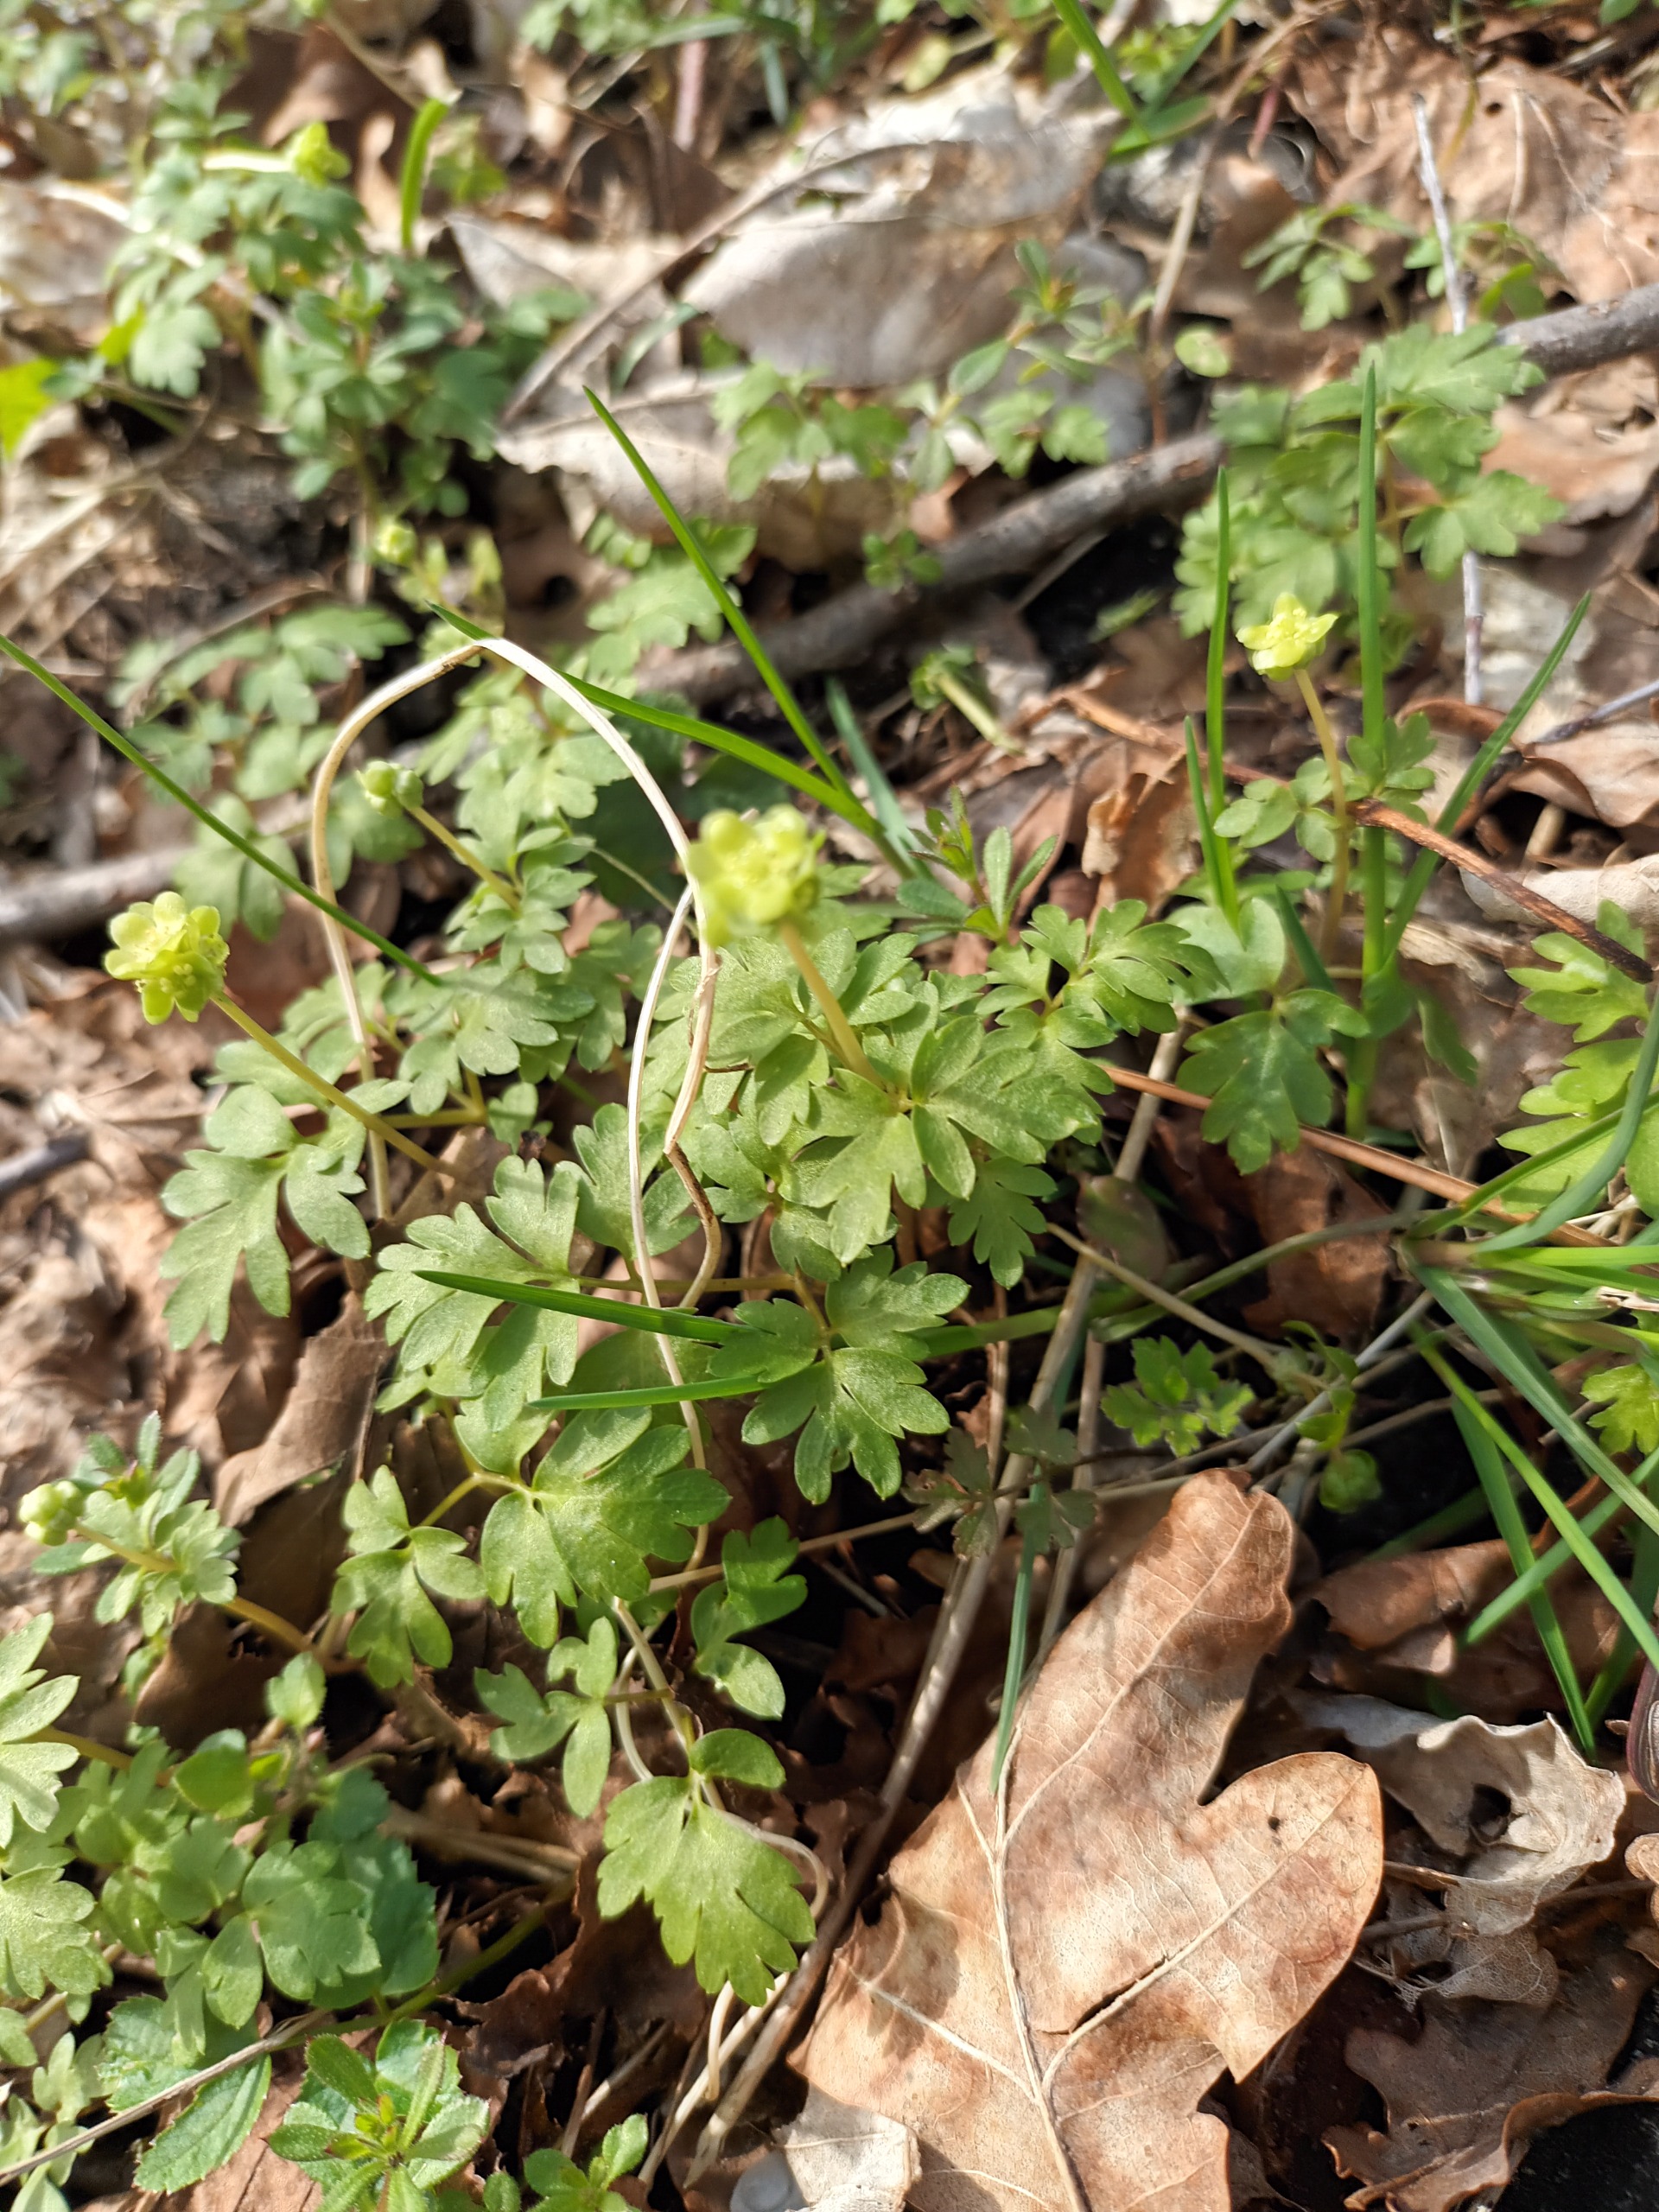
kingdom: Plantae
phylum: Tracheophyta
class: Magnoliopsida
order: Dipsacales
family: Viburnaceae
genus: Adoxa
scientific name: Adoxa moschatellina
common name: Desmerurt
